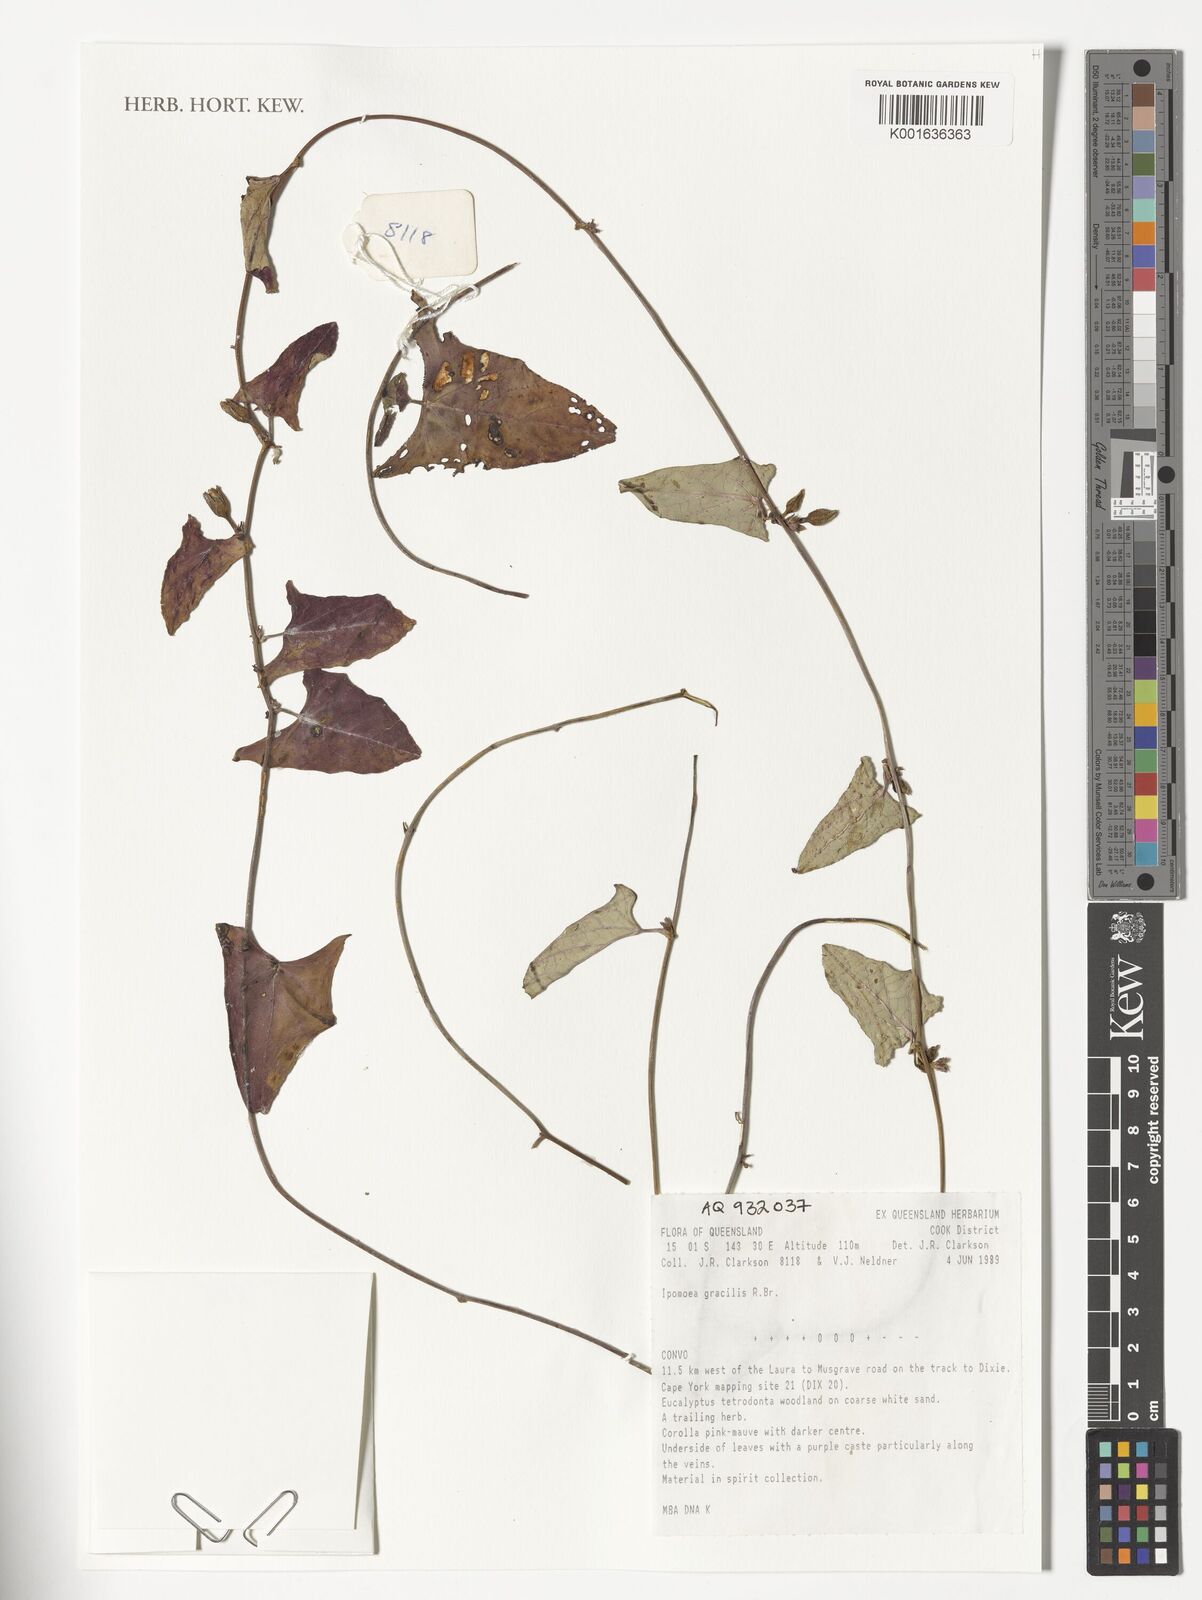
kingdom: Plantae
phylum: Tracheophyta
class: Magnoliopsida
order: Solanales
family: Convolvulaceae
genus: Ipomoea
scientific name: Ipomoea gracilis
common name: Almor-ira
